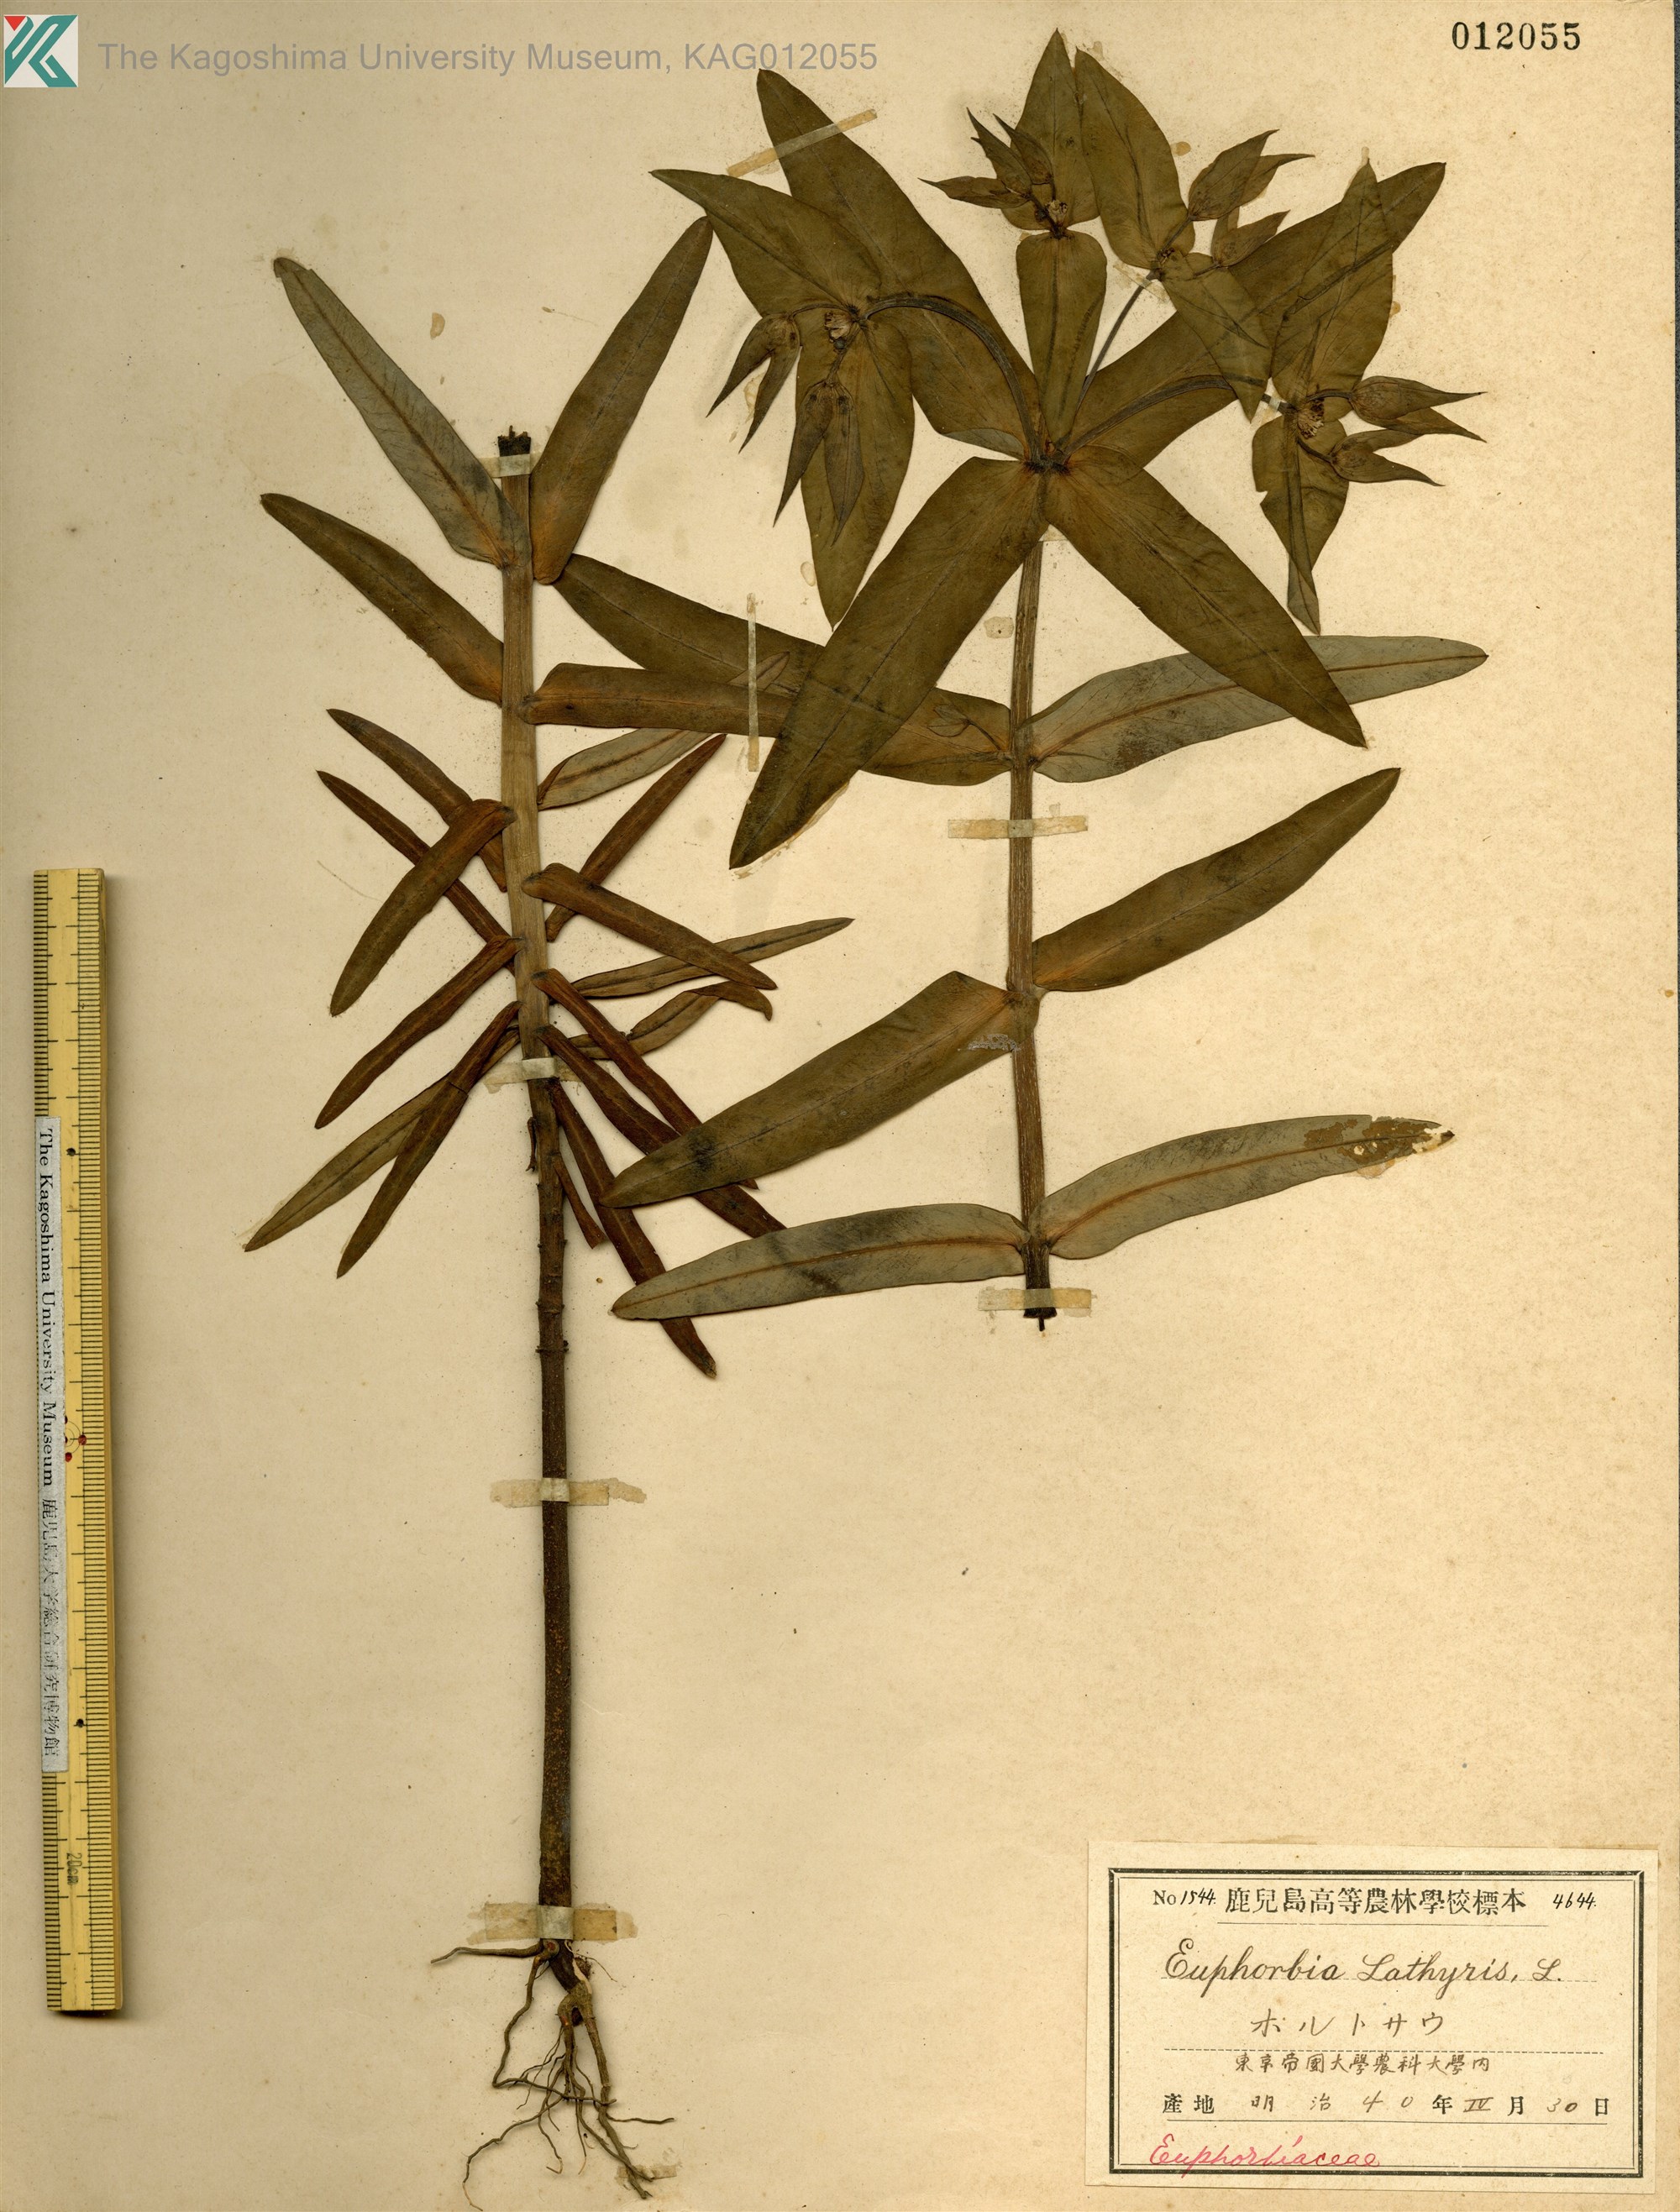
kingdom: Plantae
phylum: Tracheophyta
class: Magnoliopsida
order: Malpighiales
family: Euphorbiaceae
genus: Euphorbia
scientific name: Euphorbia lathyris
